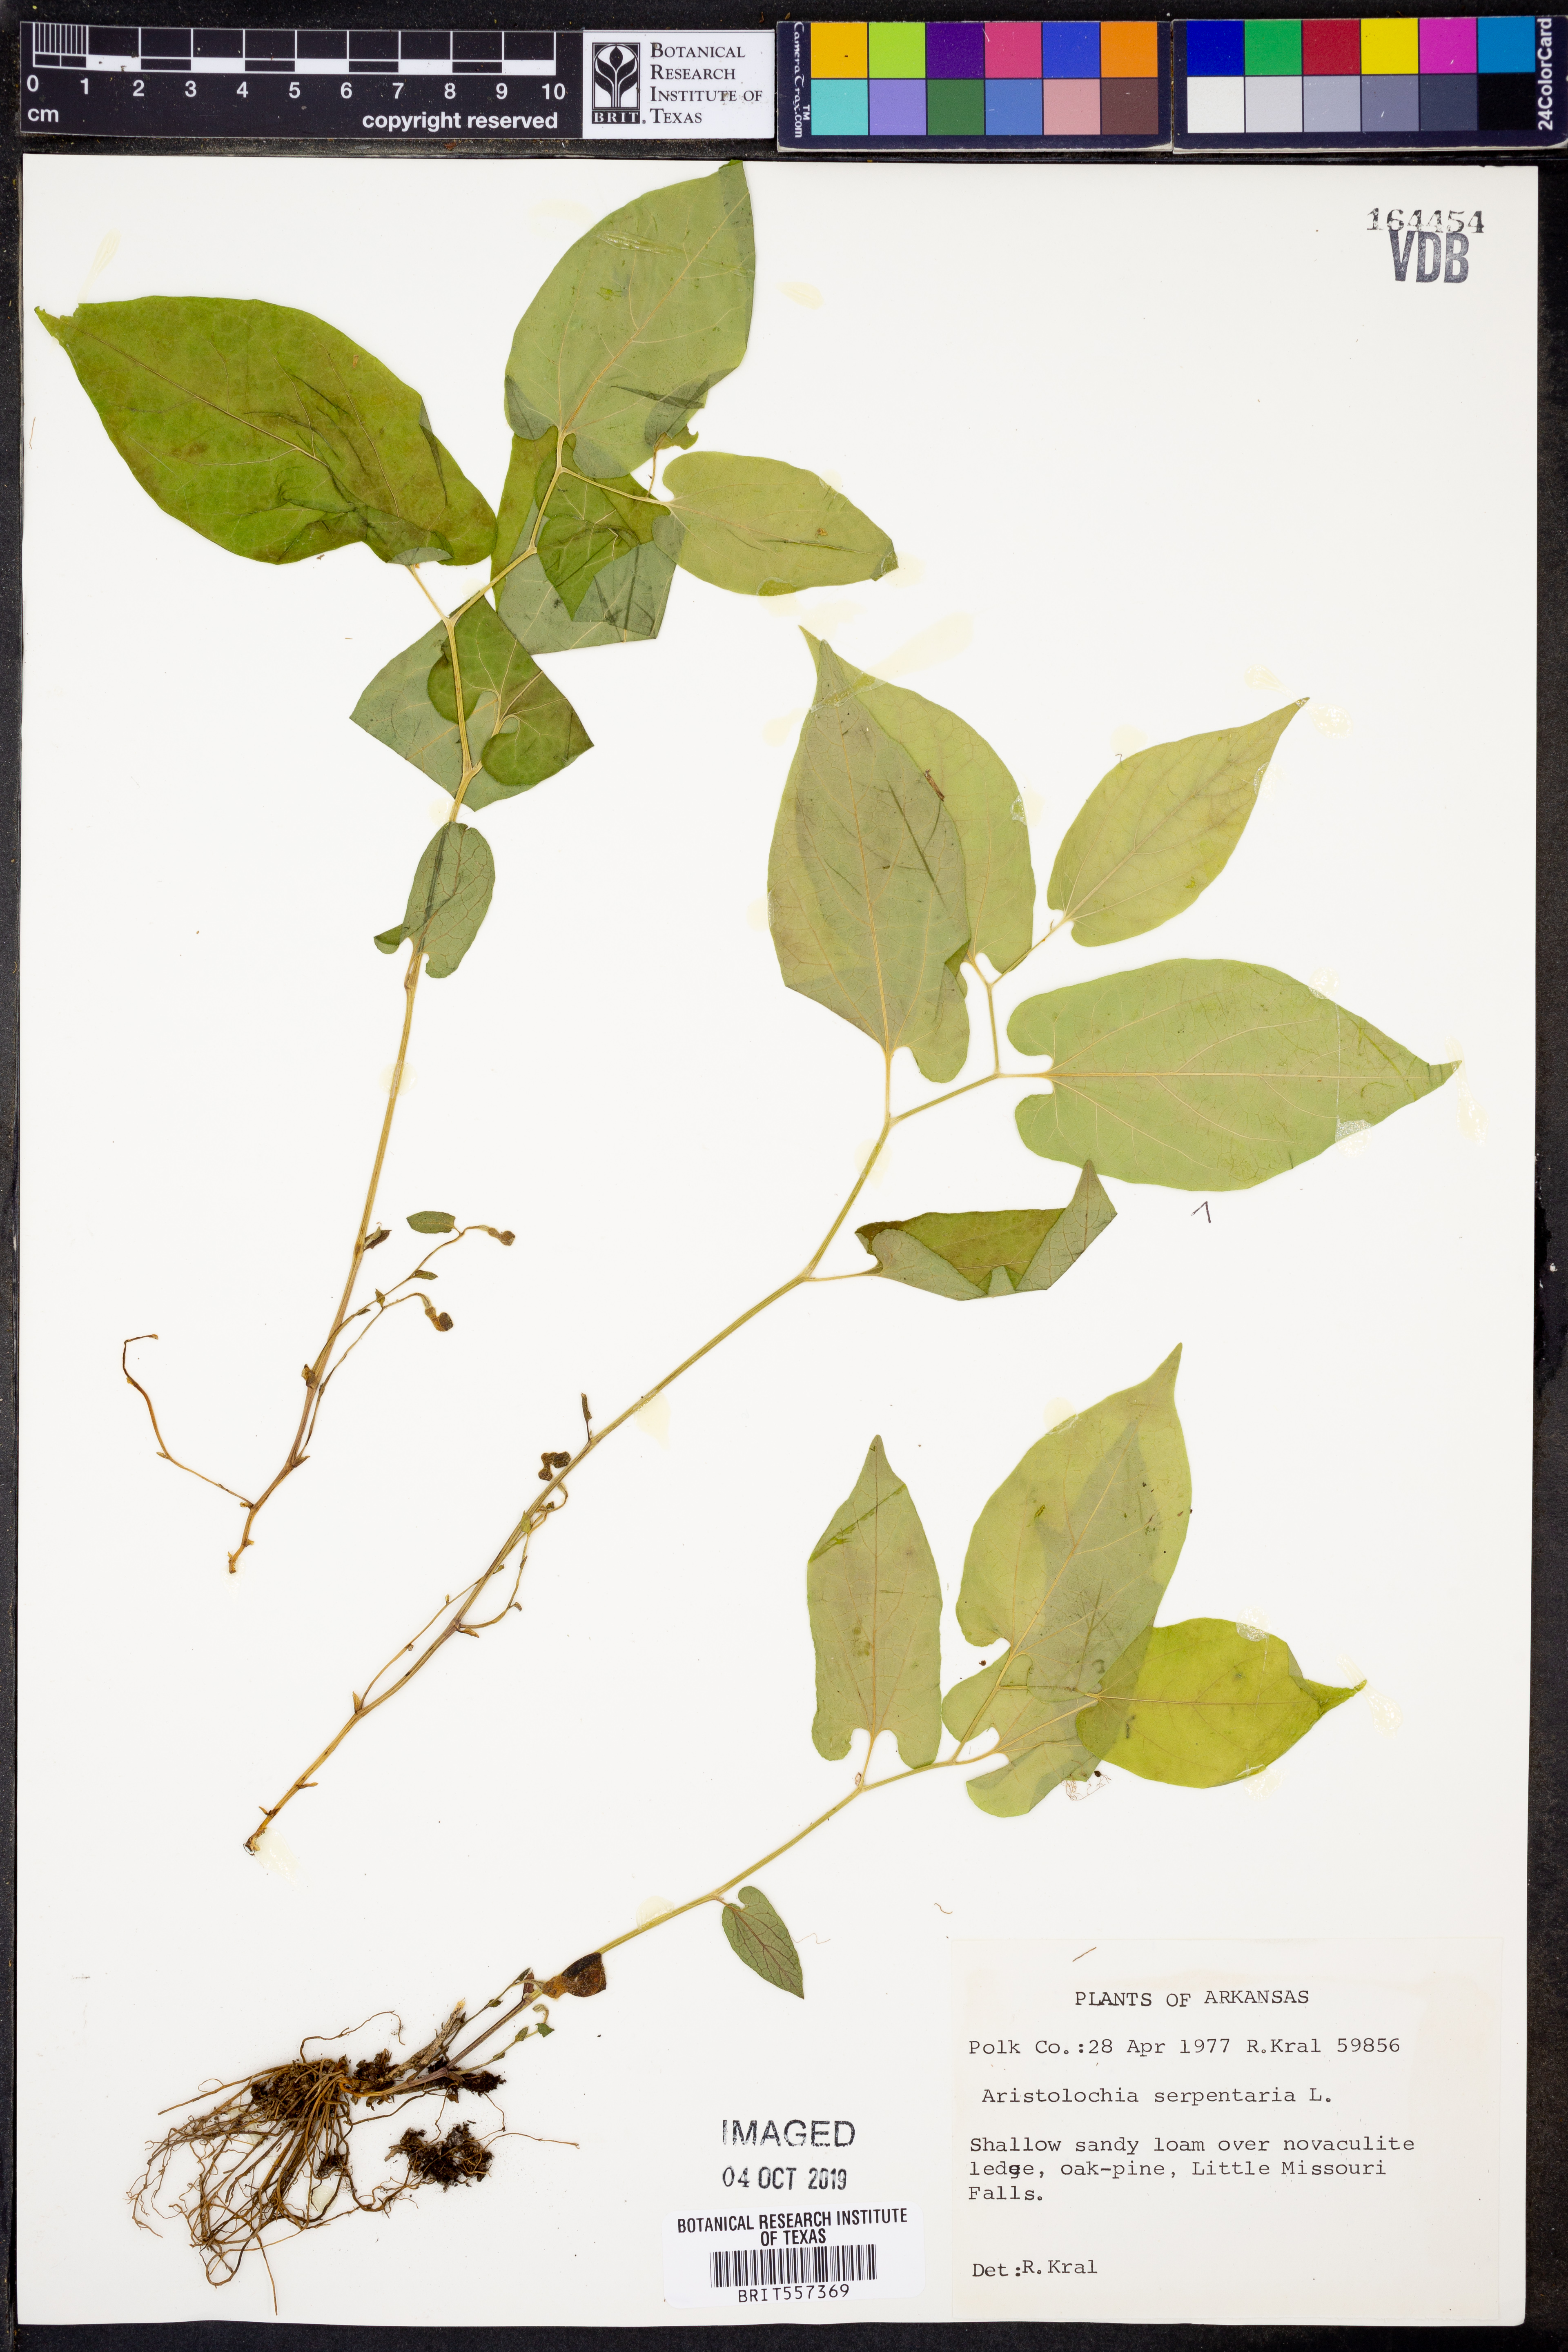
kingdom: Plantae
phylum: Tracheophyta
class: Magnoliopsida
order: Piperales
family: Aristolochiaceae
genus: Endodeca
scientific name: Endodeca serpentaria
